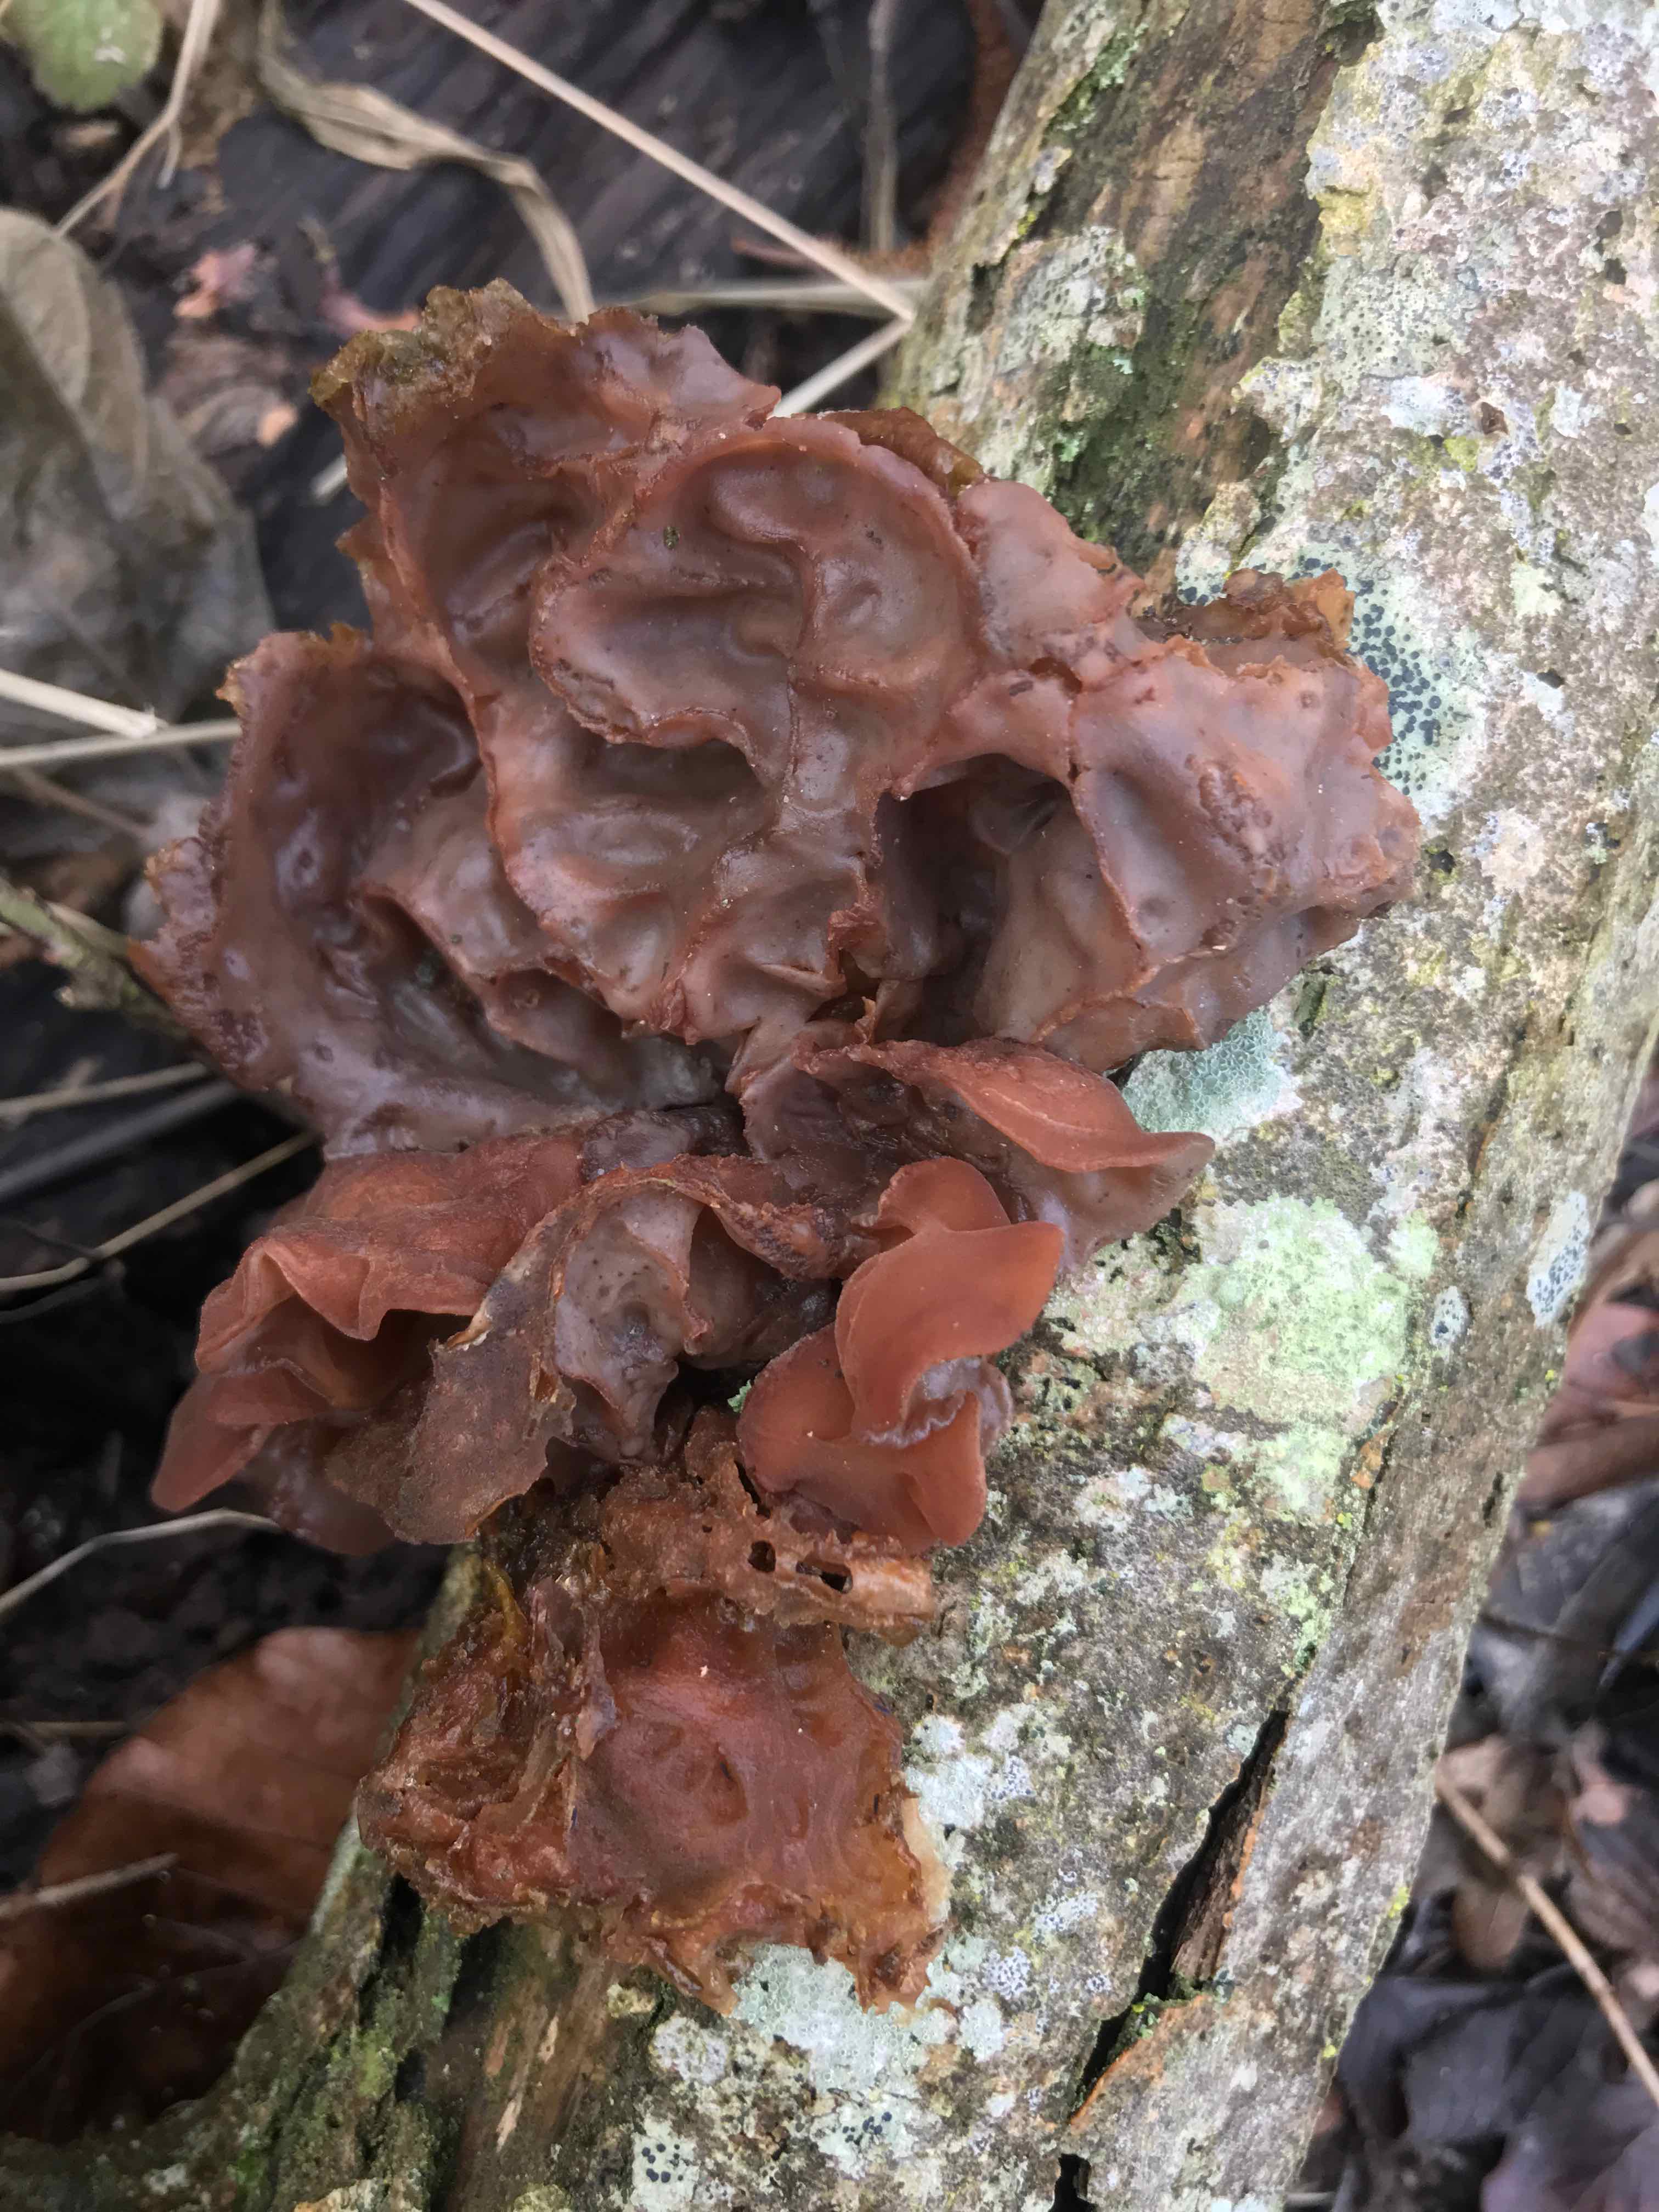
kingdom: Fungi
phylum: Basidiomycota
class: Agaricomycetes
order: Auriculariales
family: Auriculariaceae
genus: Auricularia
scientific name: Auricularia auricula-judae
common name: almindelig judasøre
